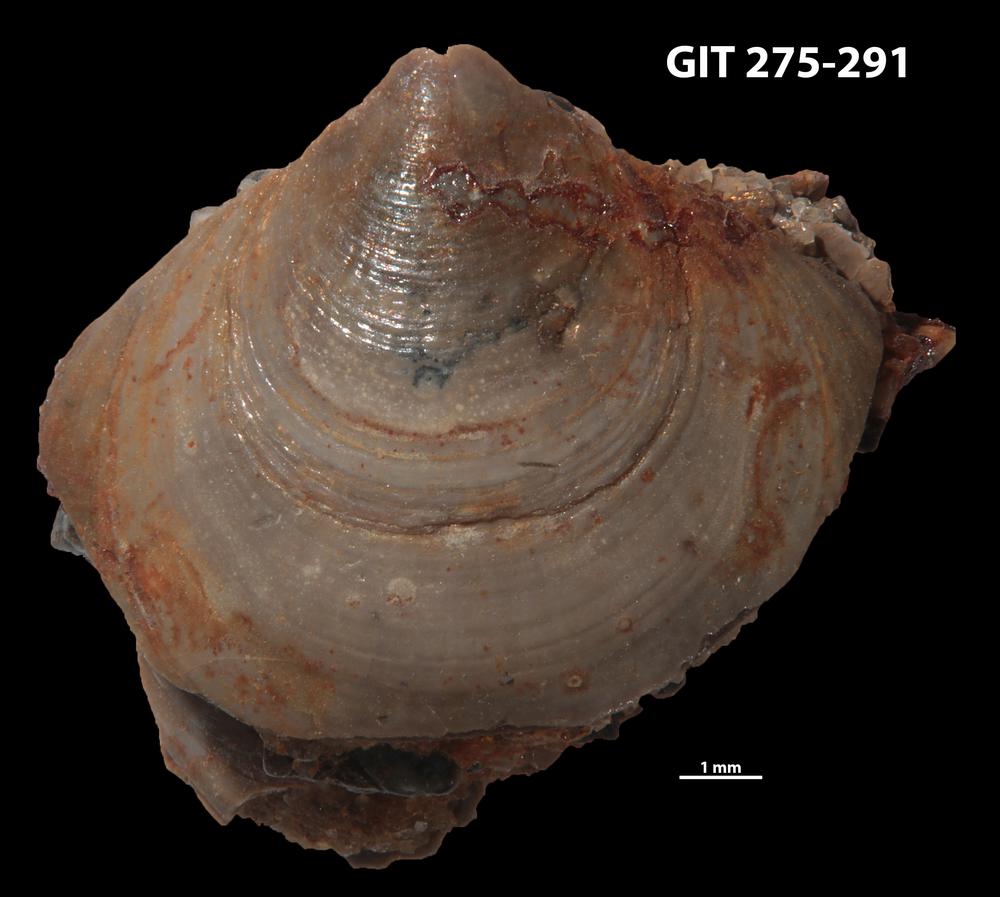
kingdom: Animalia
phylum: Brachiopoda
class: Lingulata
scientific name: Lingulata
